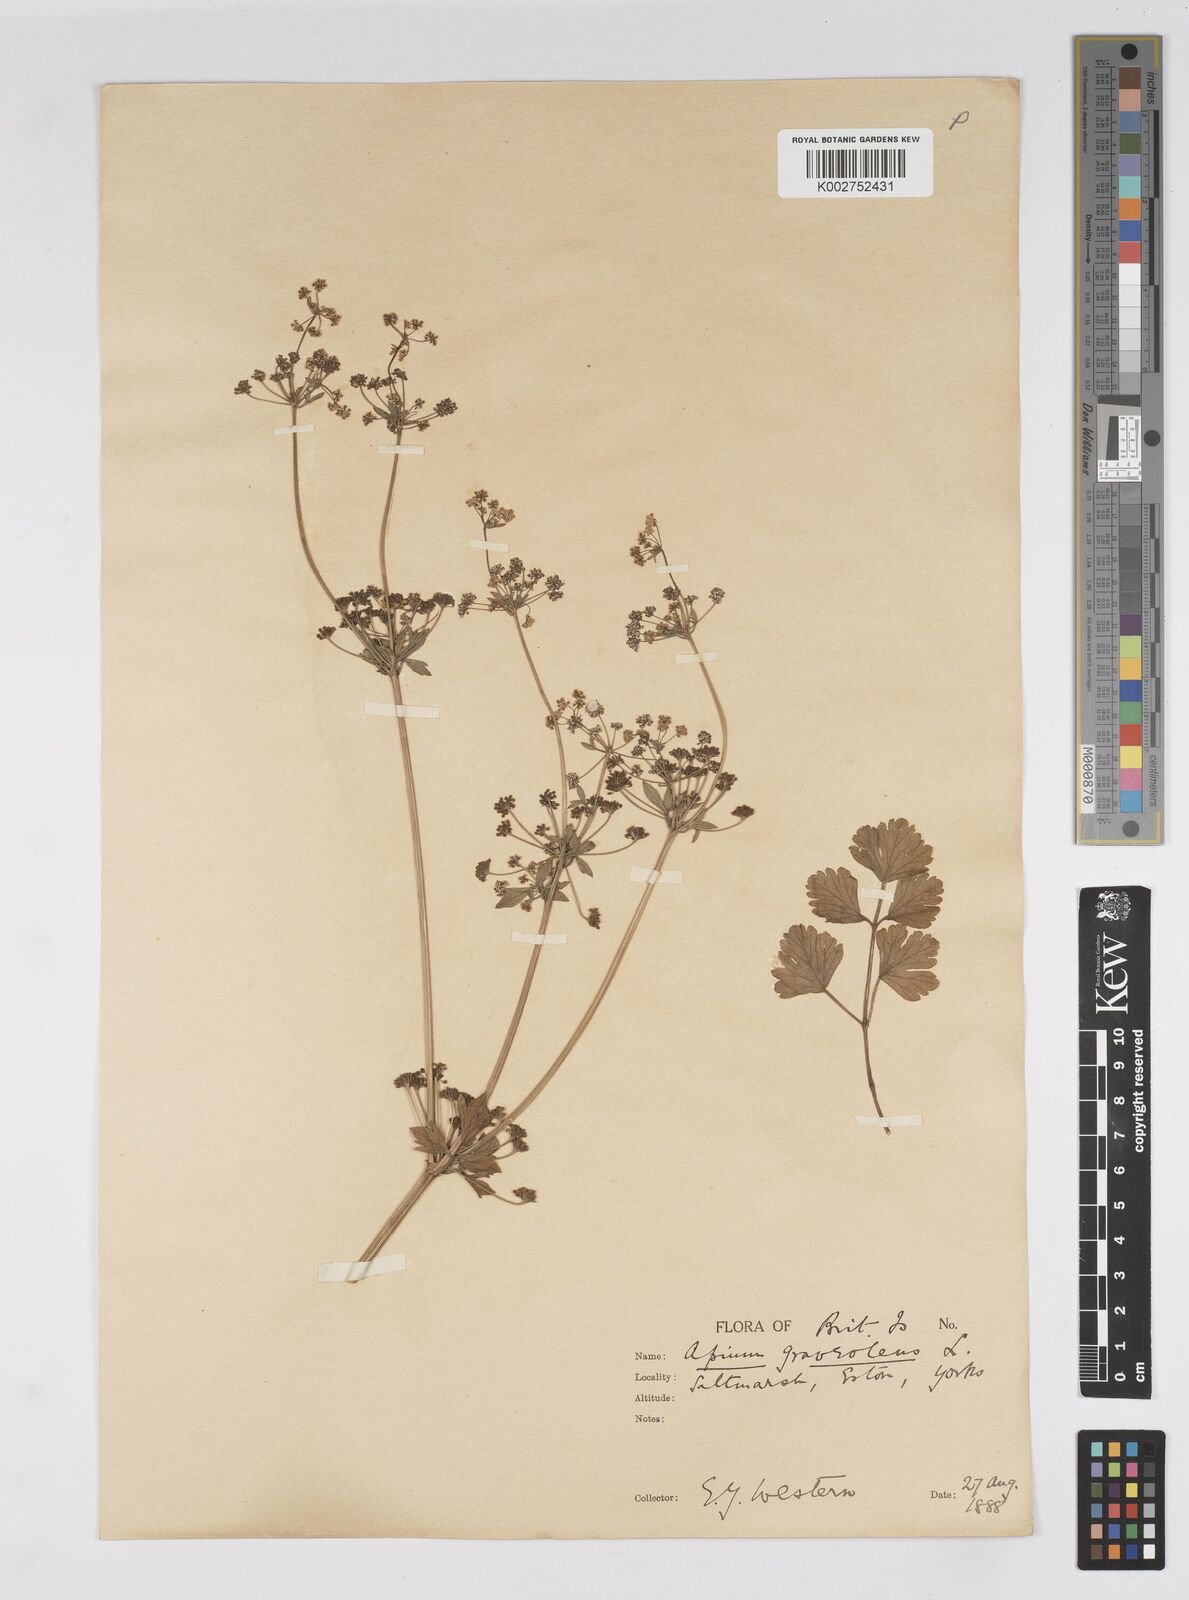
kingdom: Plantae
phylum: Tracheophyta
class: Magnoliopsida
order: Apiales
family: Apiaceae
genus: Apium
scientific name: Apium graveolens
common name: Wild celery
